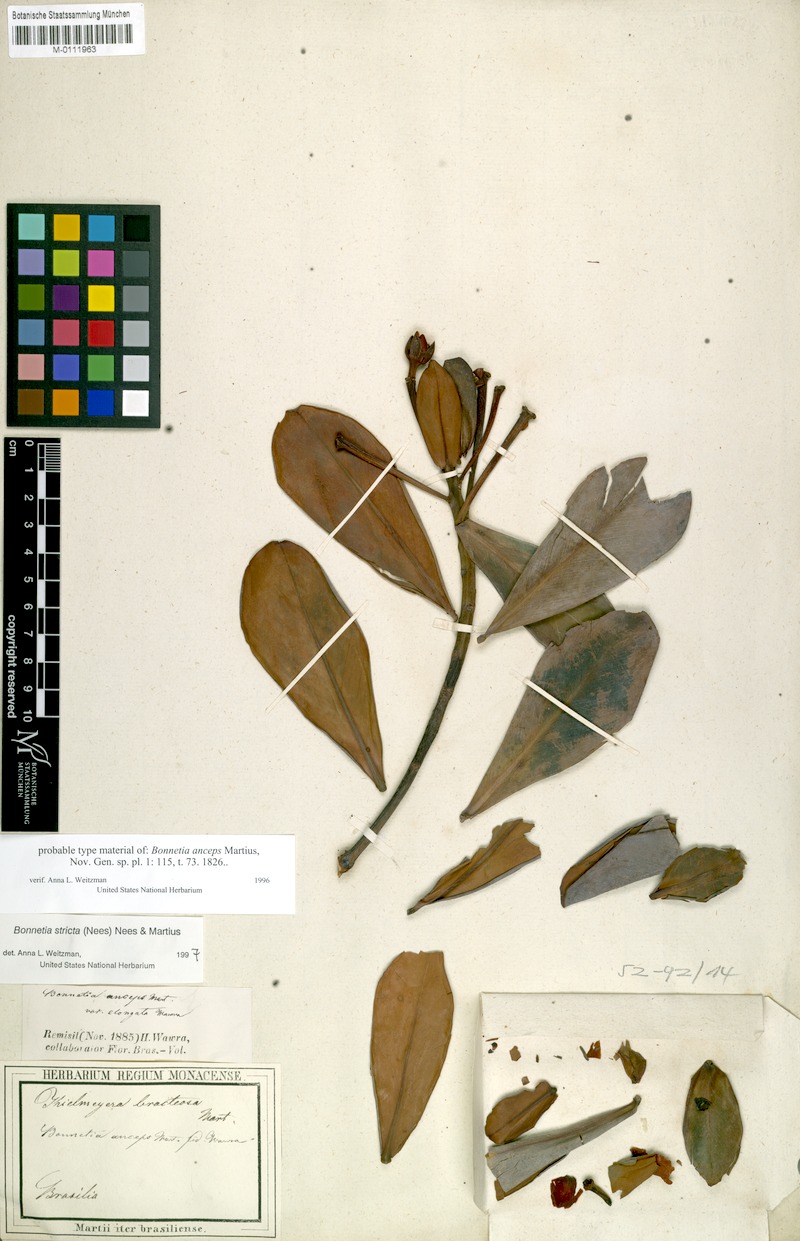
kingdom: Plantae
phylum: Tracheophyta
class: Magnoliopsida
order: Malpighiales
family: Bonnetiaceae
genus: Bonnetia
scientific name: Bonnetia stricta
